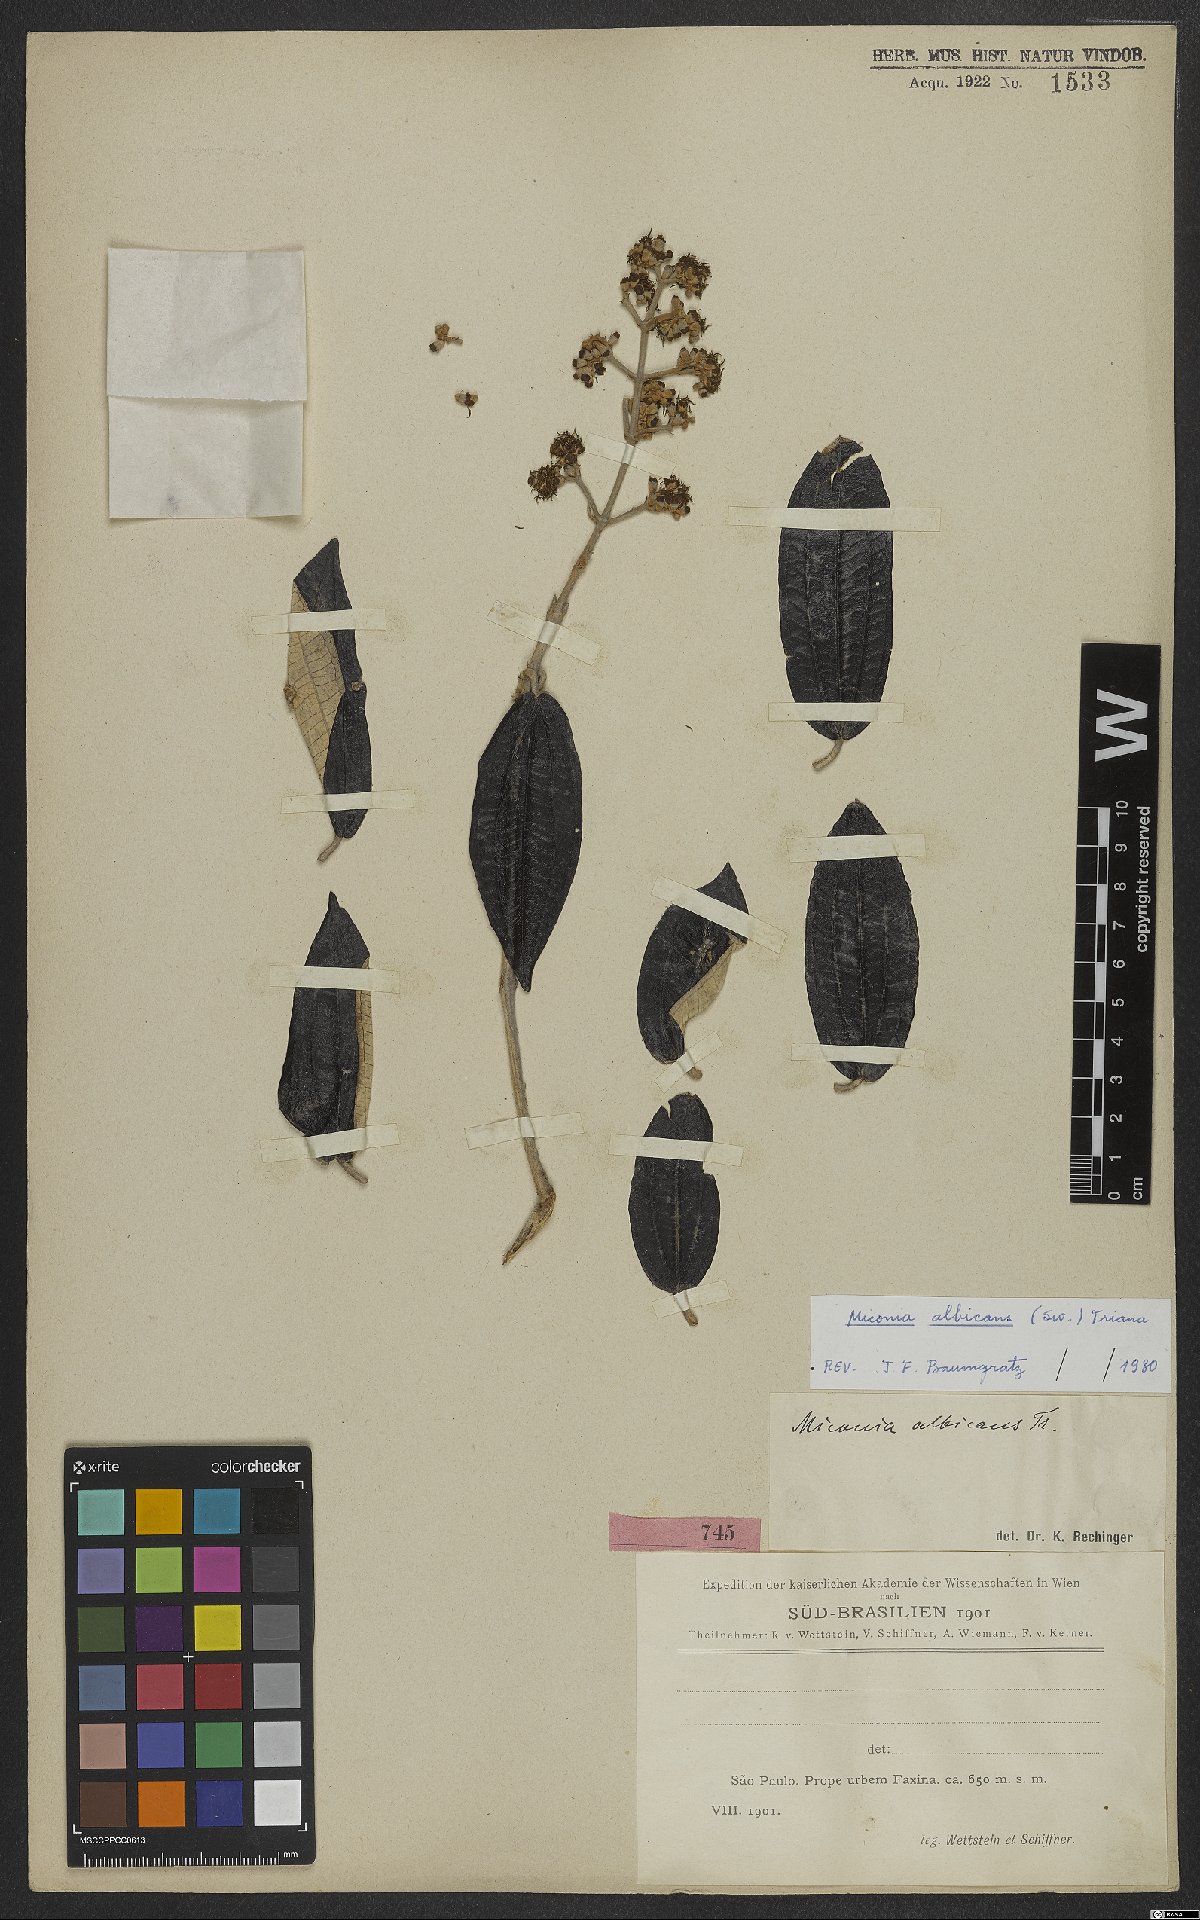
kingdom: Plantae
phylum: Tracheophyta
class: Magnoliopsida
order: Myrtales
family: Melastomataceae
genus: Miconia
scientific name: Miconia albicans
